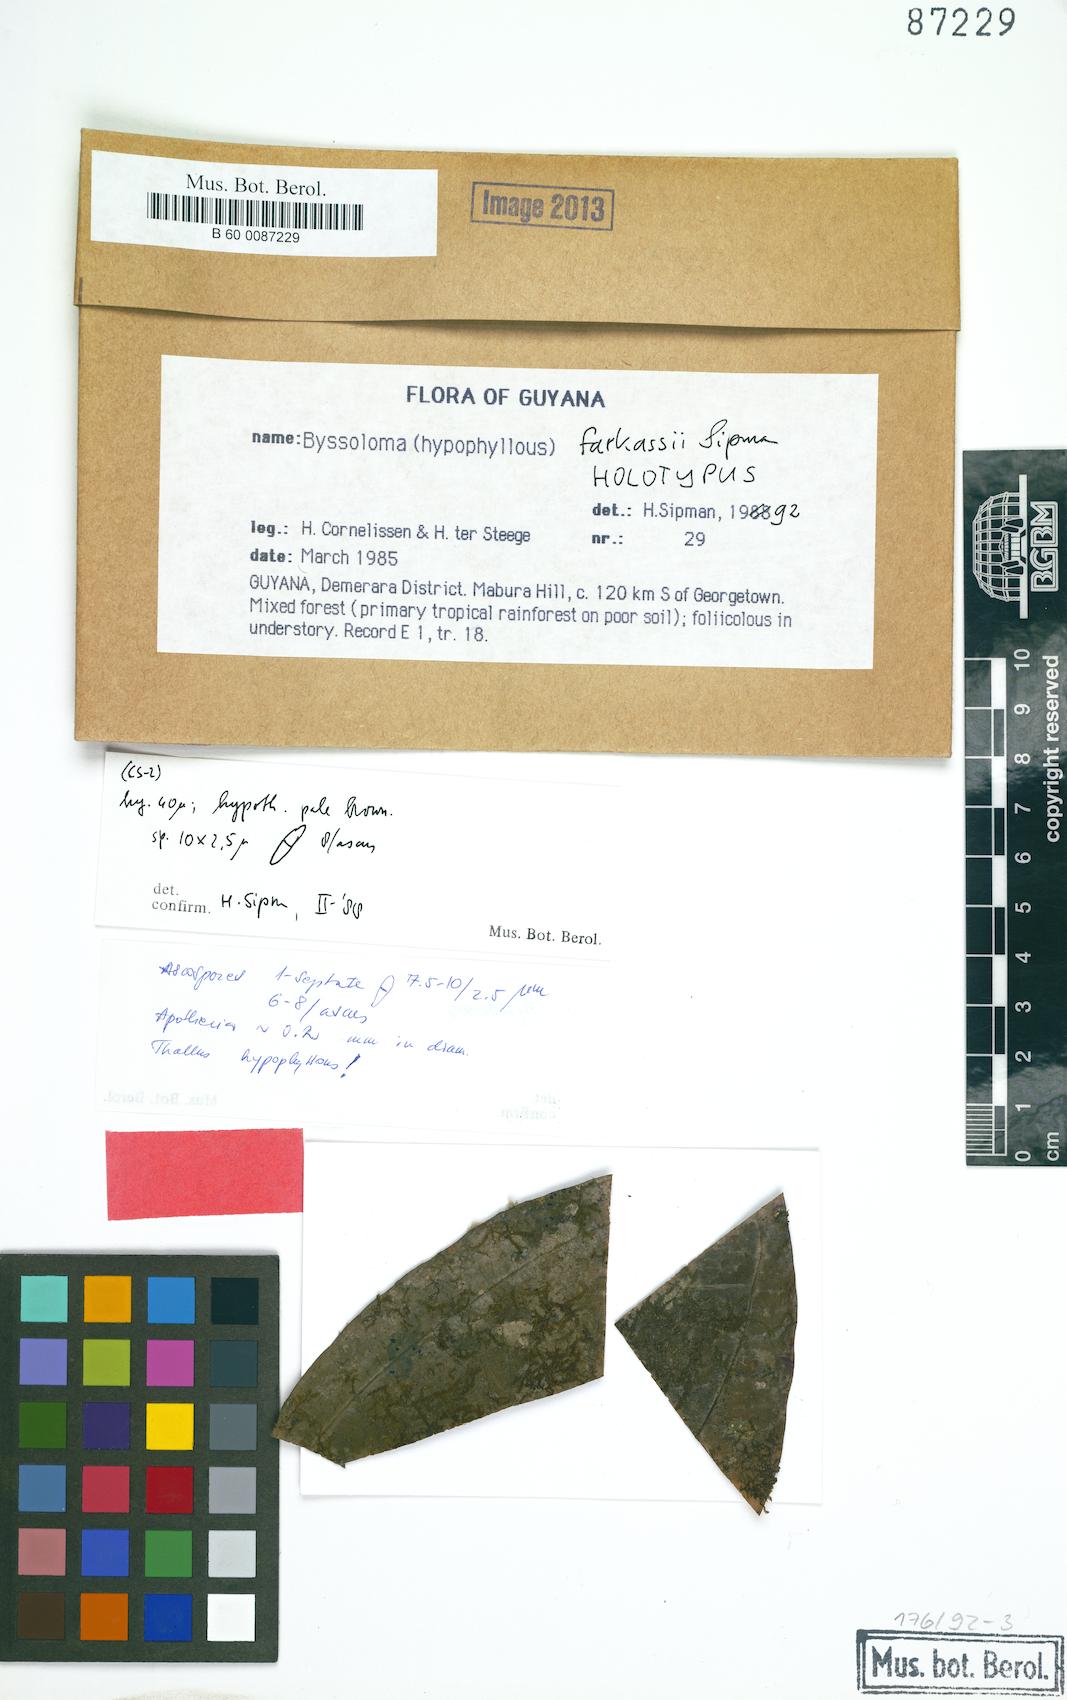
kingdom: Fungi
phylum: Ascomycota
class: Lecanoromycetes
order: Lecanorales
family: Byssolomataceae
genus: Byssoloma
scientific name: Byssoloma farkasii
